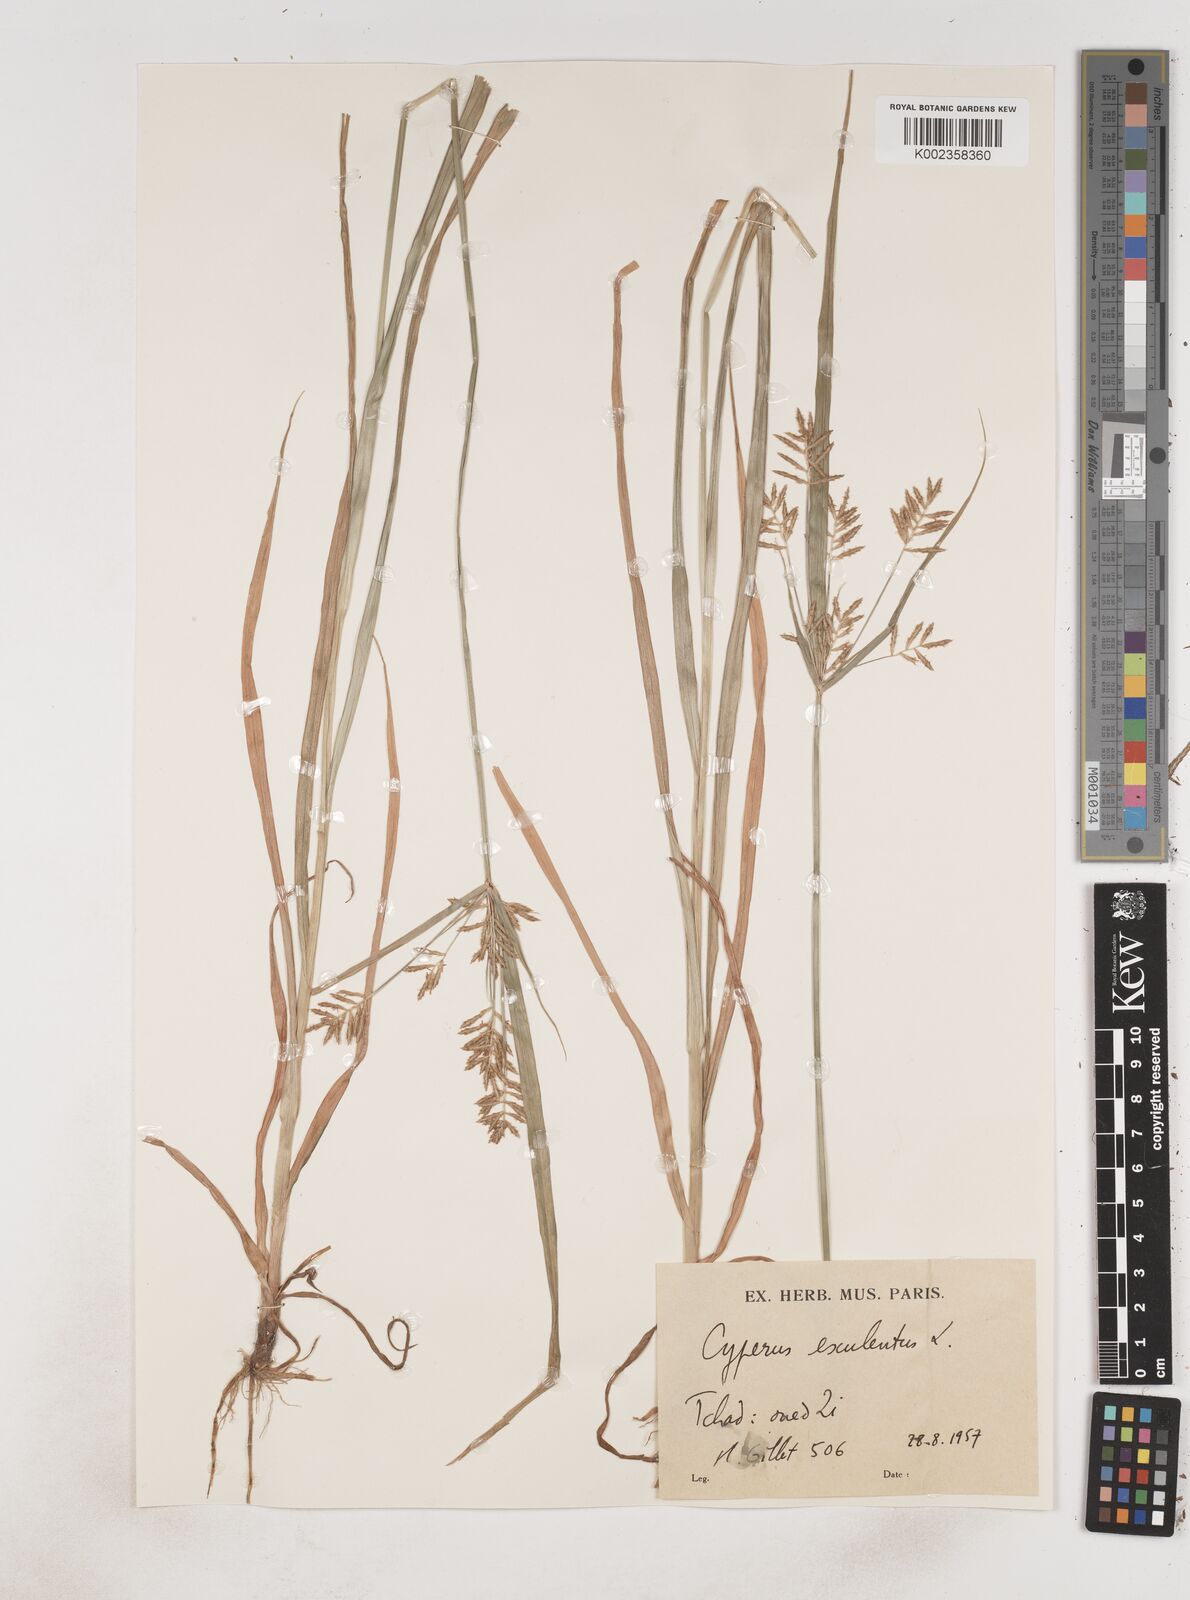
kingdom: Plantae
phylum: Tracheophyta
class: Liliopsida
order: Poales
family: Cyperaceae
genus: Cyperus
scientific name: Cyperus esculentus
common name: Yellow nutsedge
